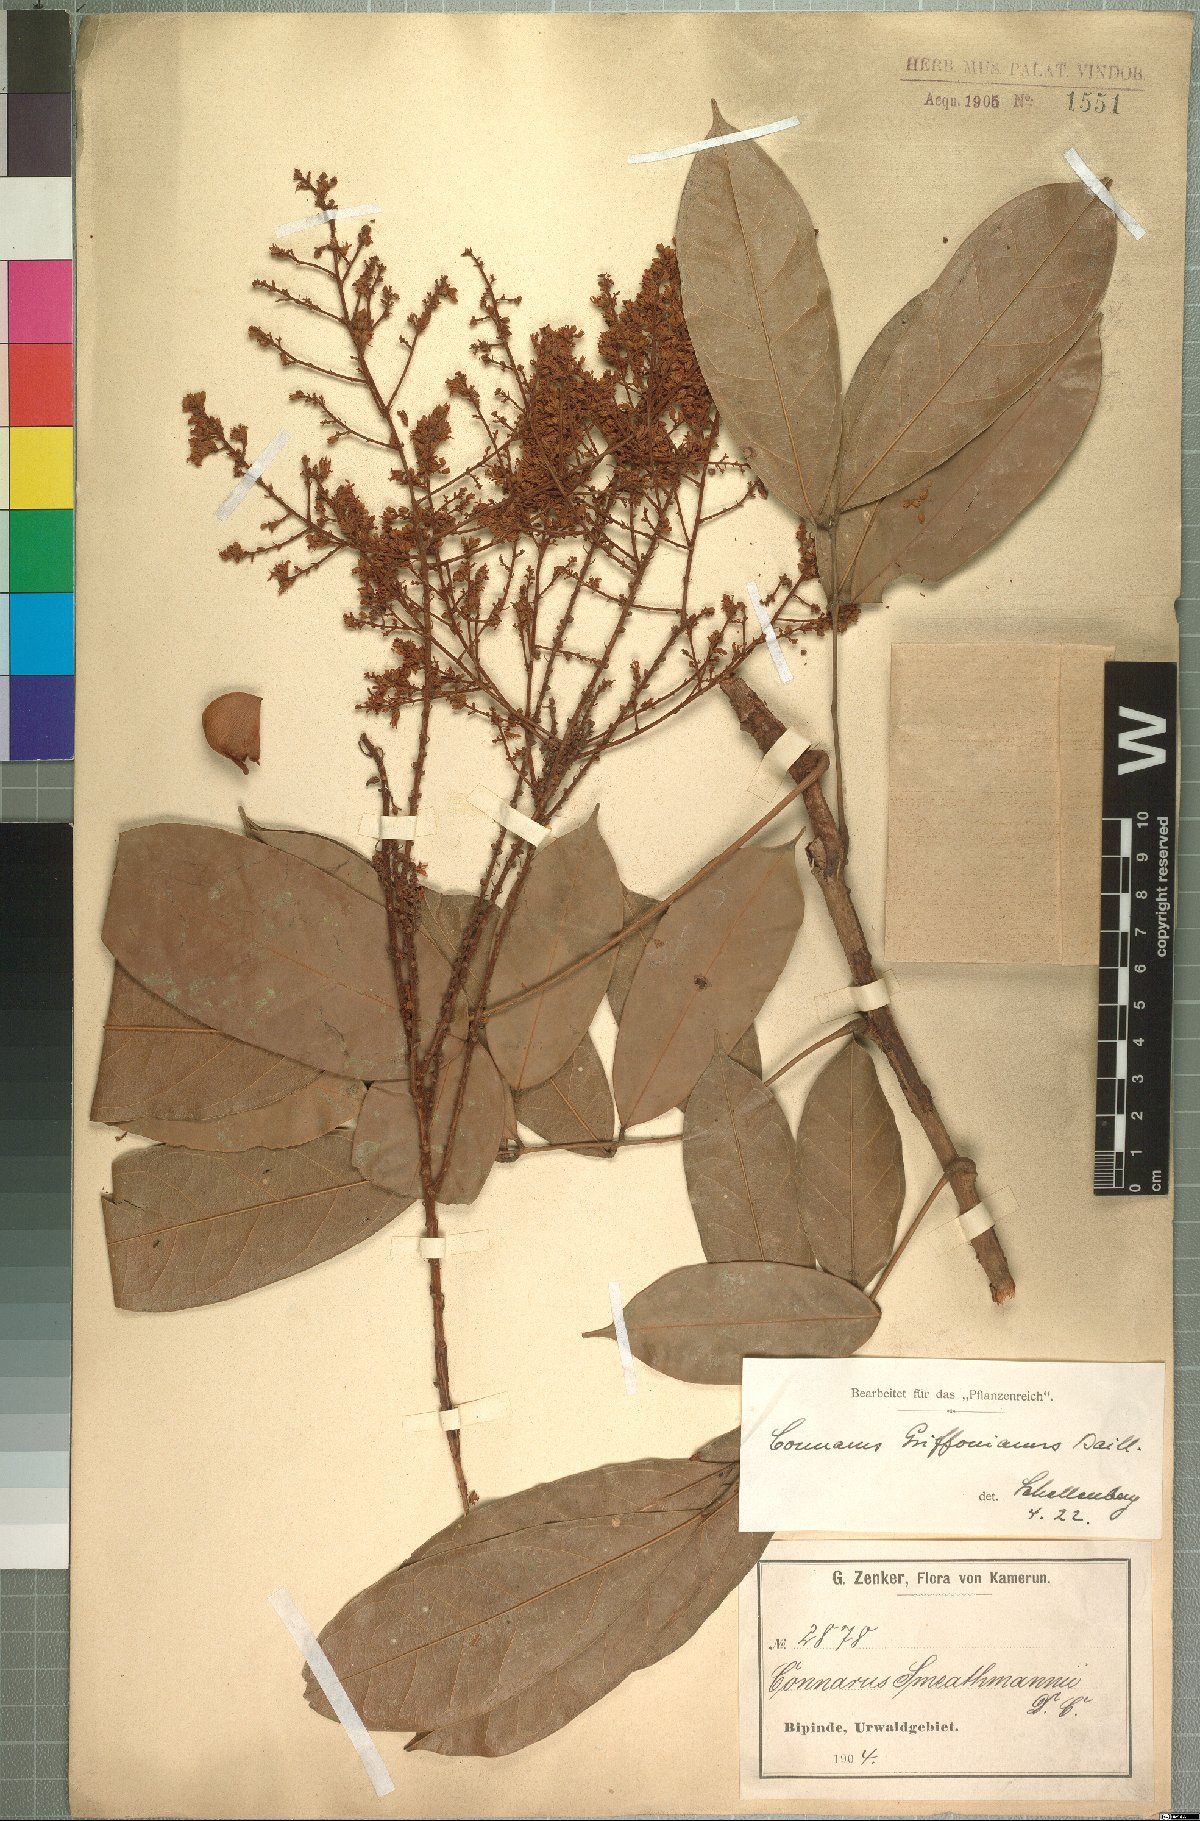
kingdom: Plantae
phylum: Tracheophyta
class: Magnoliopsida
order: Oxalidales
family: Connaraceae
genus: Connarus
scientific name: Connarus griffonianus
